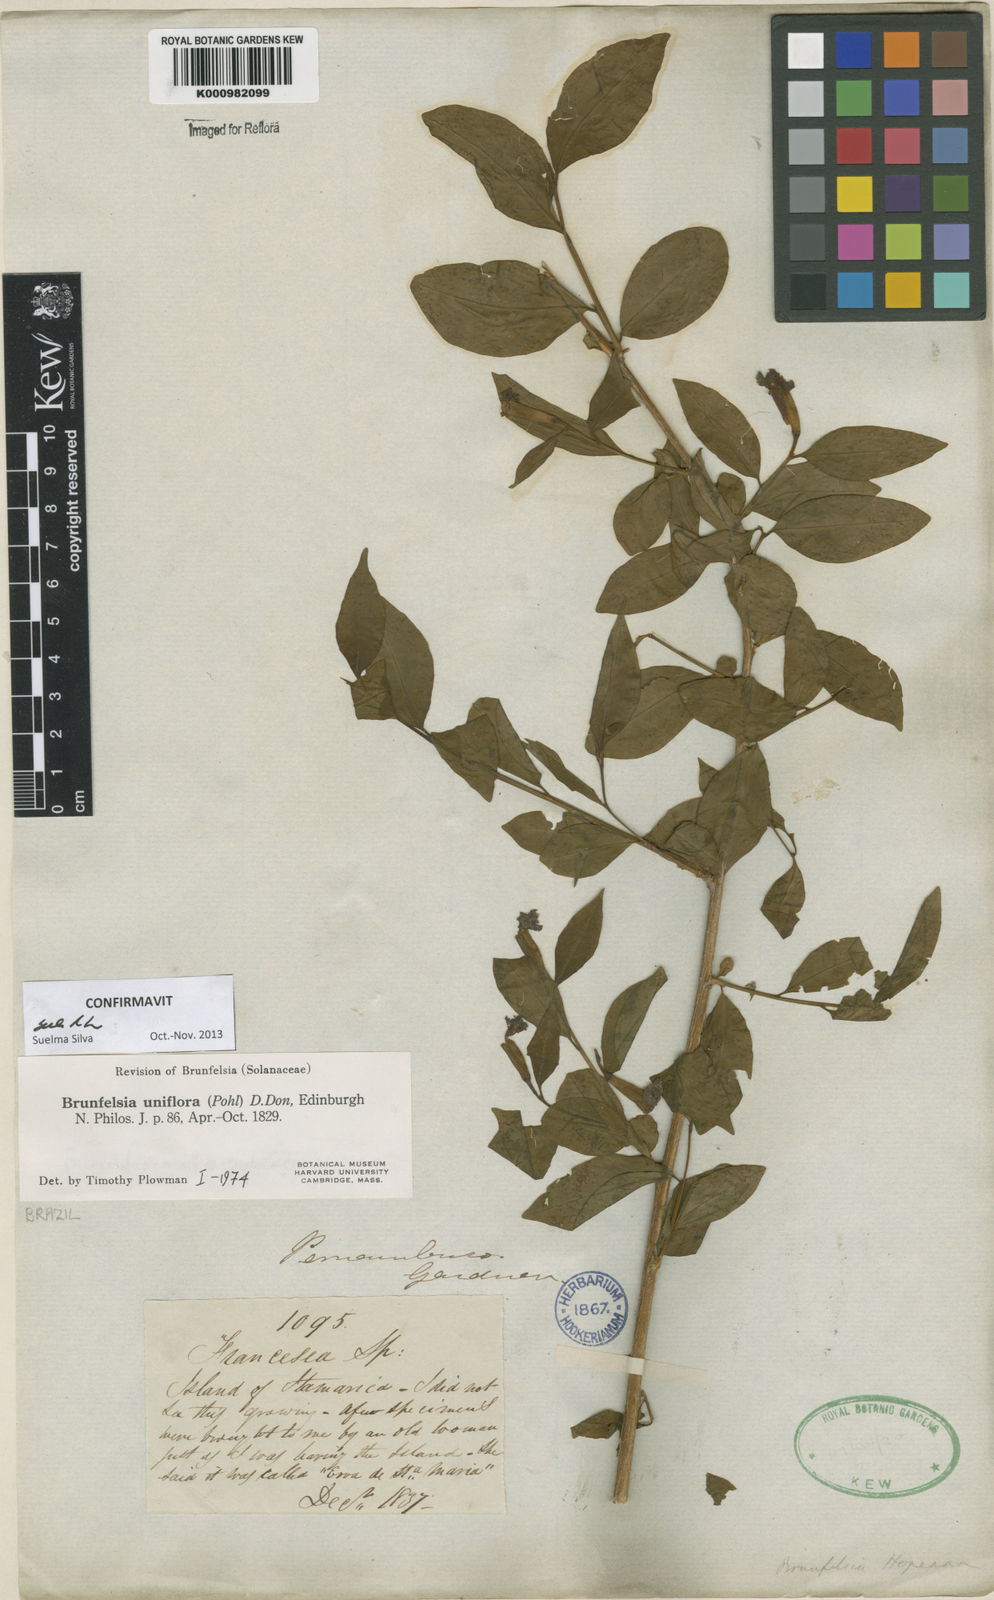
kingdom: Plantae
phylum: Tracheophyta
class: Magnoliopsida
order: Solanales
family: Solanaceae
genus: Brunfelsia
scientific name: Brunfelsia uniflora
